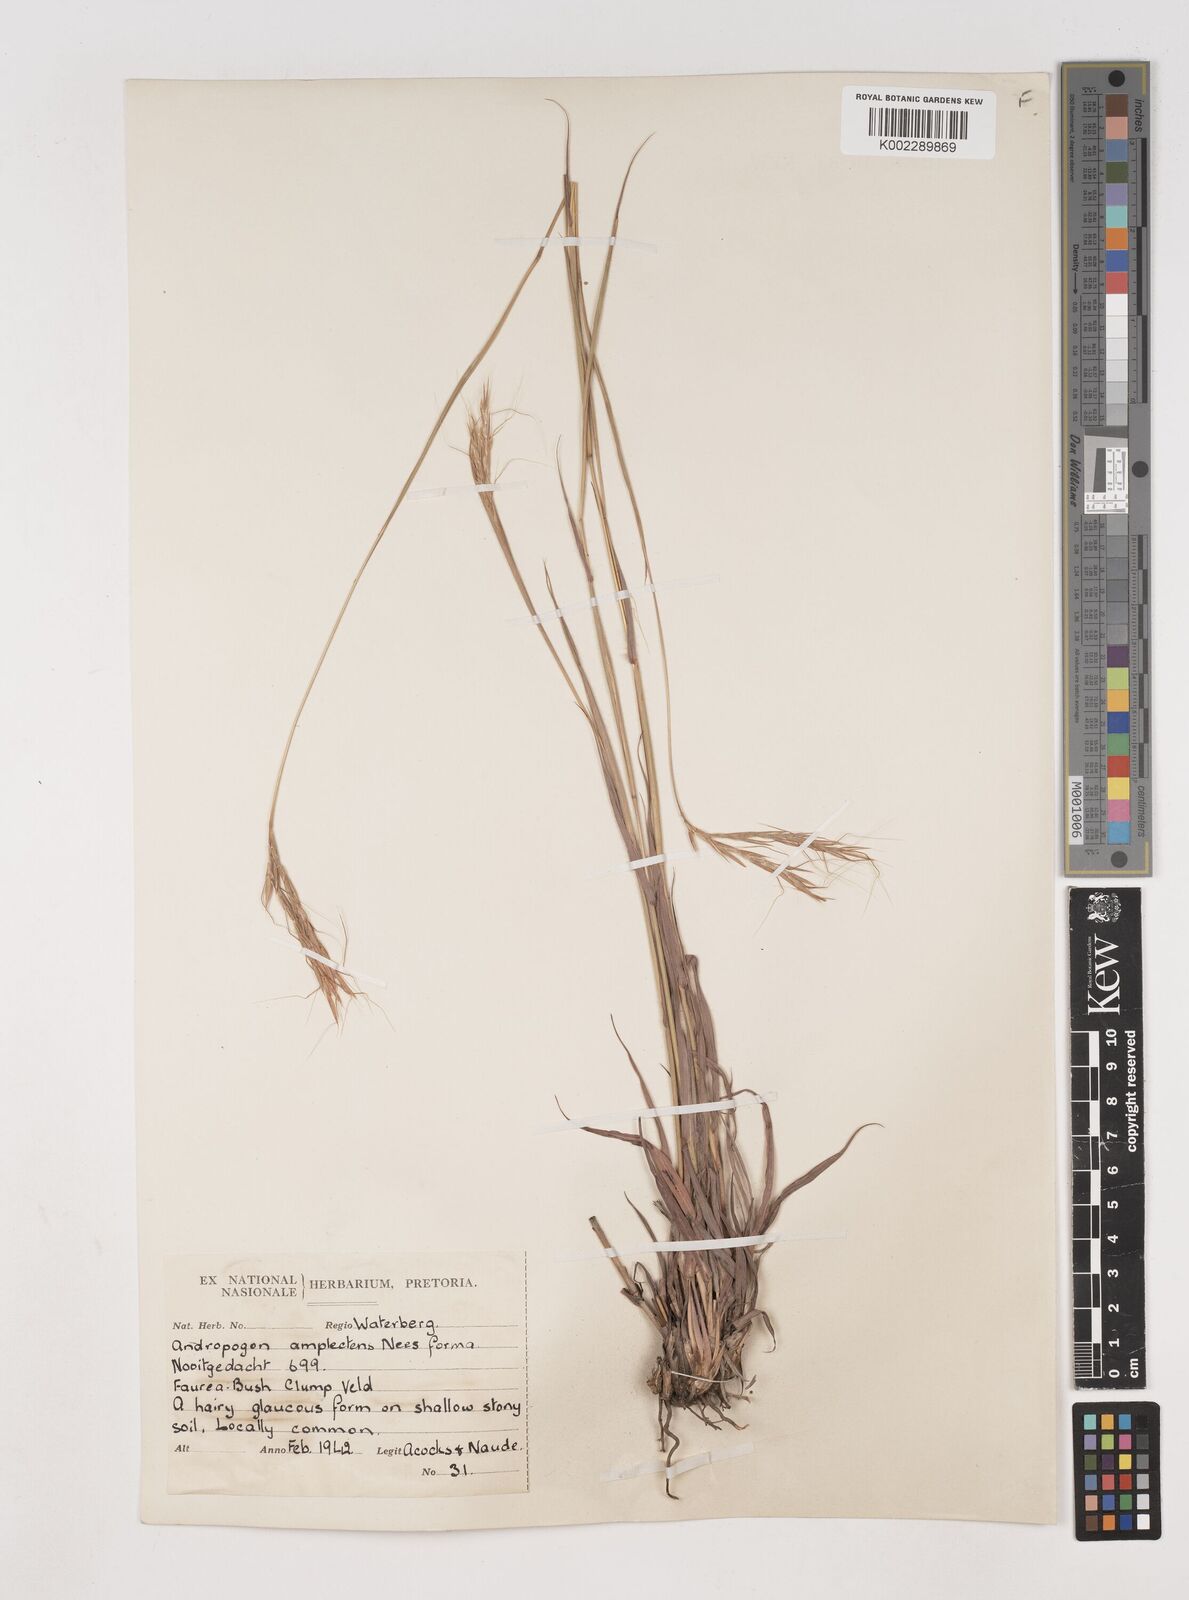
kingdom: Plantae
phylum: Tracheophyta
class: Liliopsida
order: Poales
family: Poaceae
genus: Diheteropogon
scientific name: Diheteropogon amplectens
